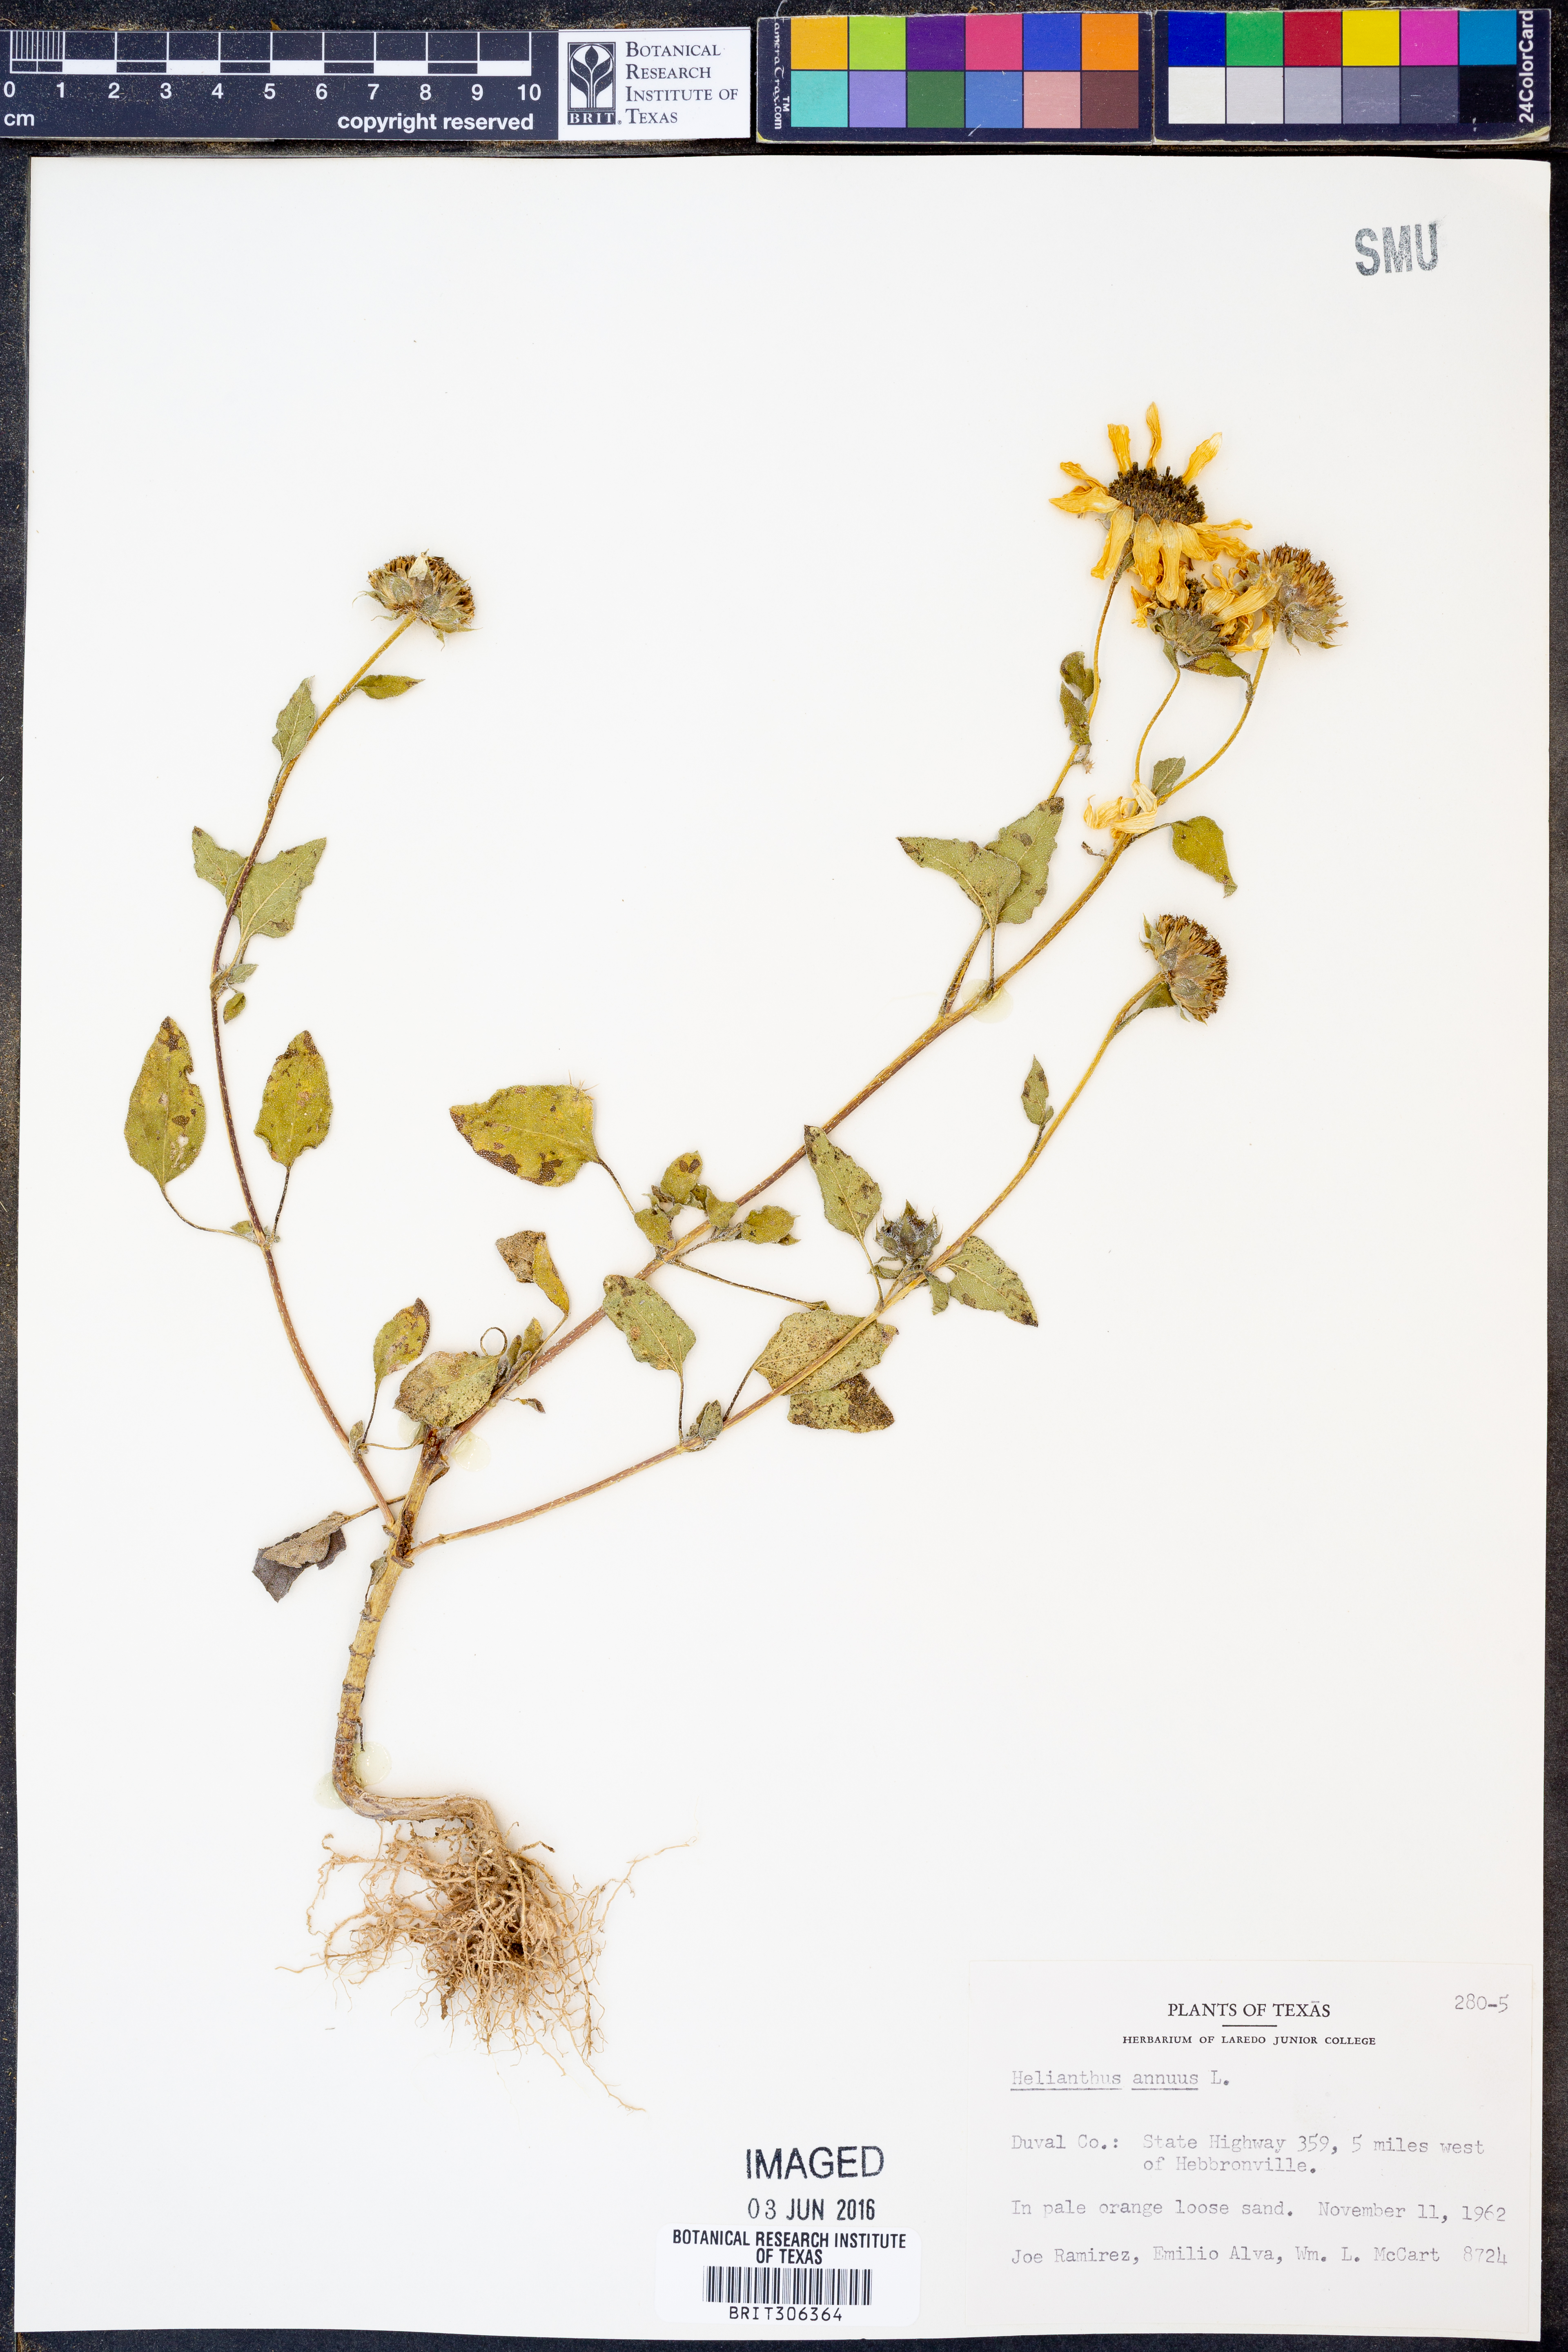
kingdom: Plantae
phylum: Tracheophyta
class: Magnoliopsida
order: Asterales
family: Asteraceae
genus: Helianthus
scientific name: Helianthus annuus
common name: Sunflower
